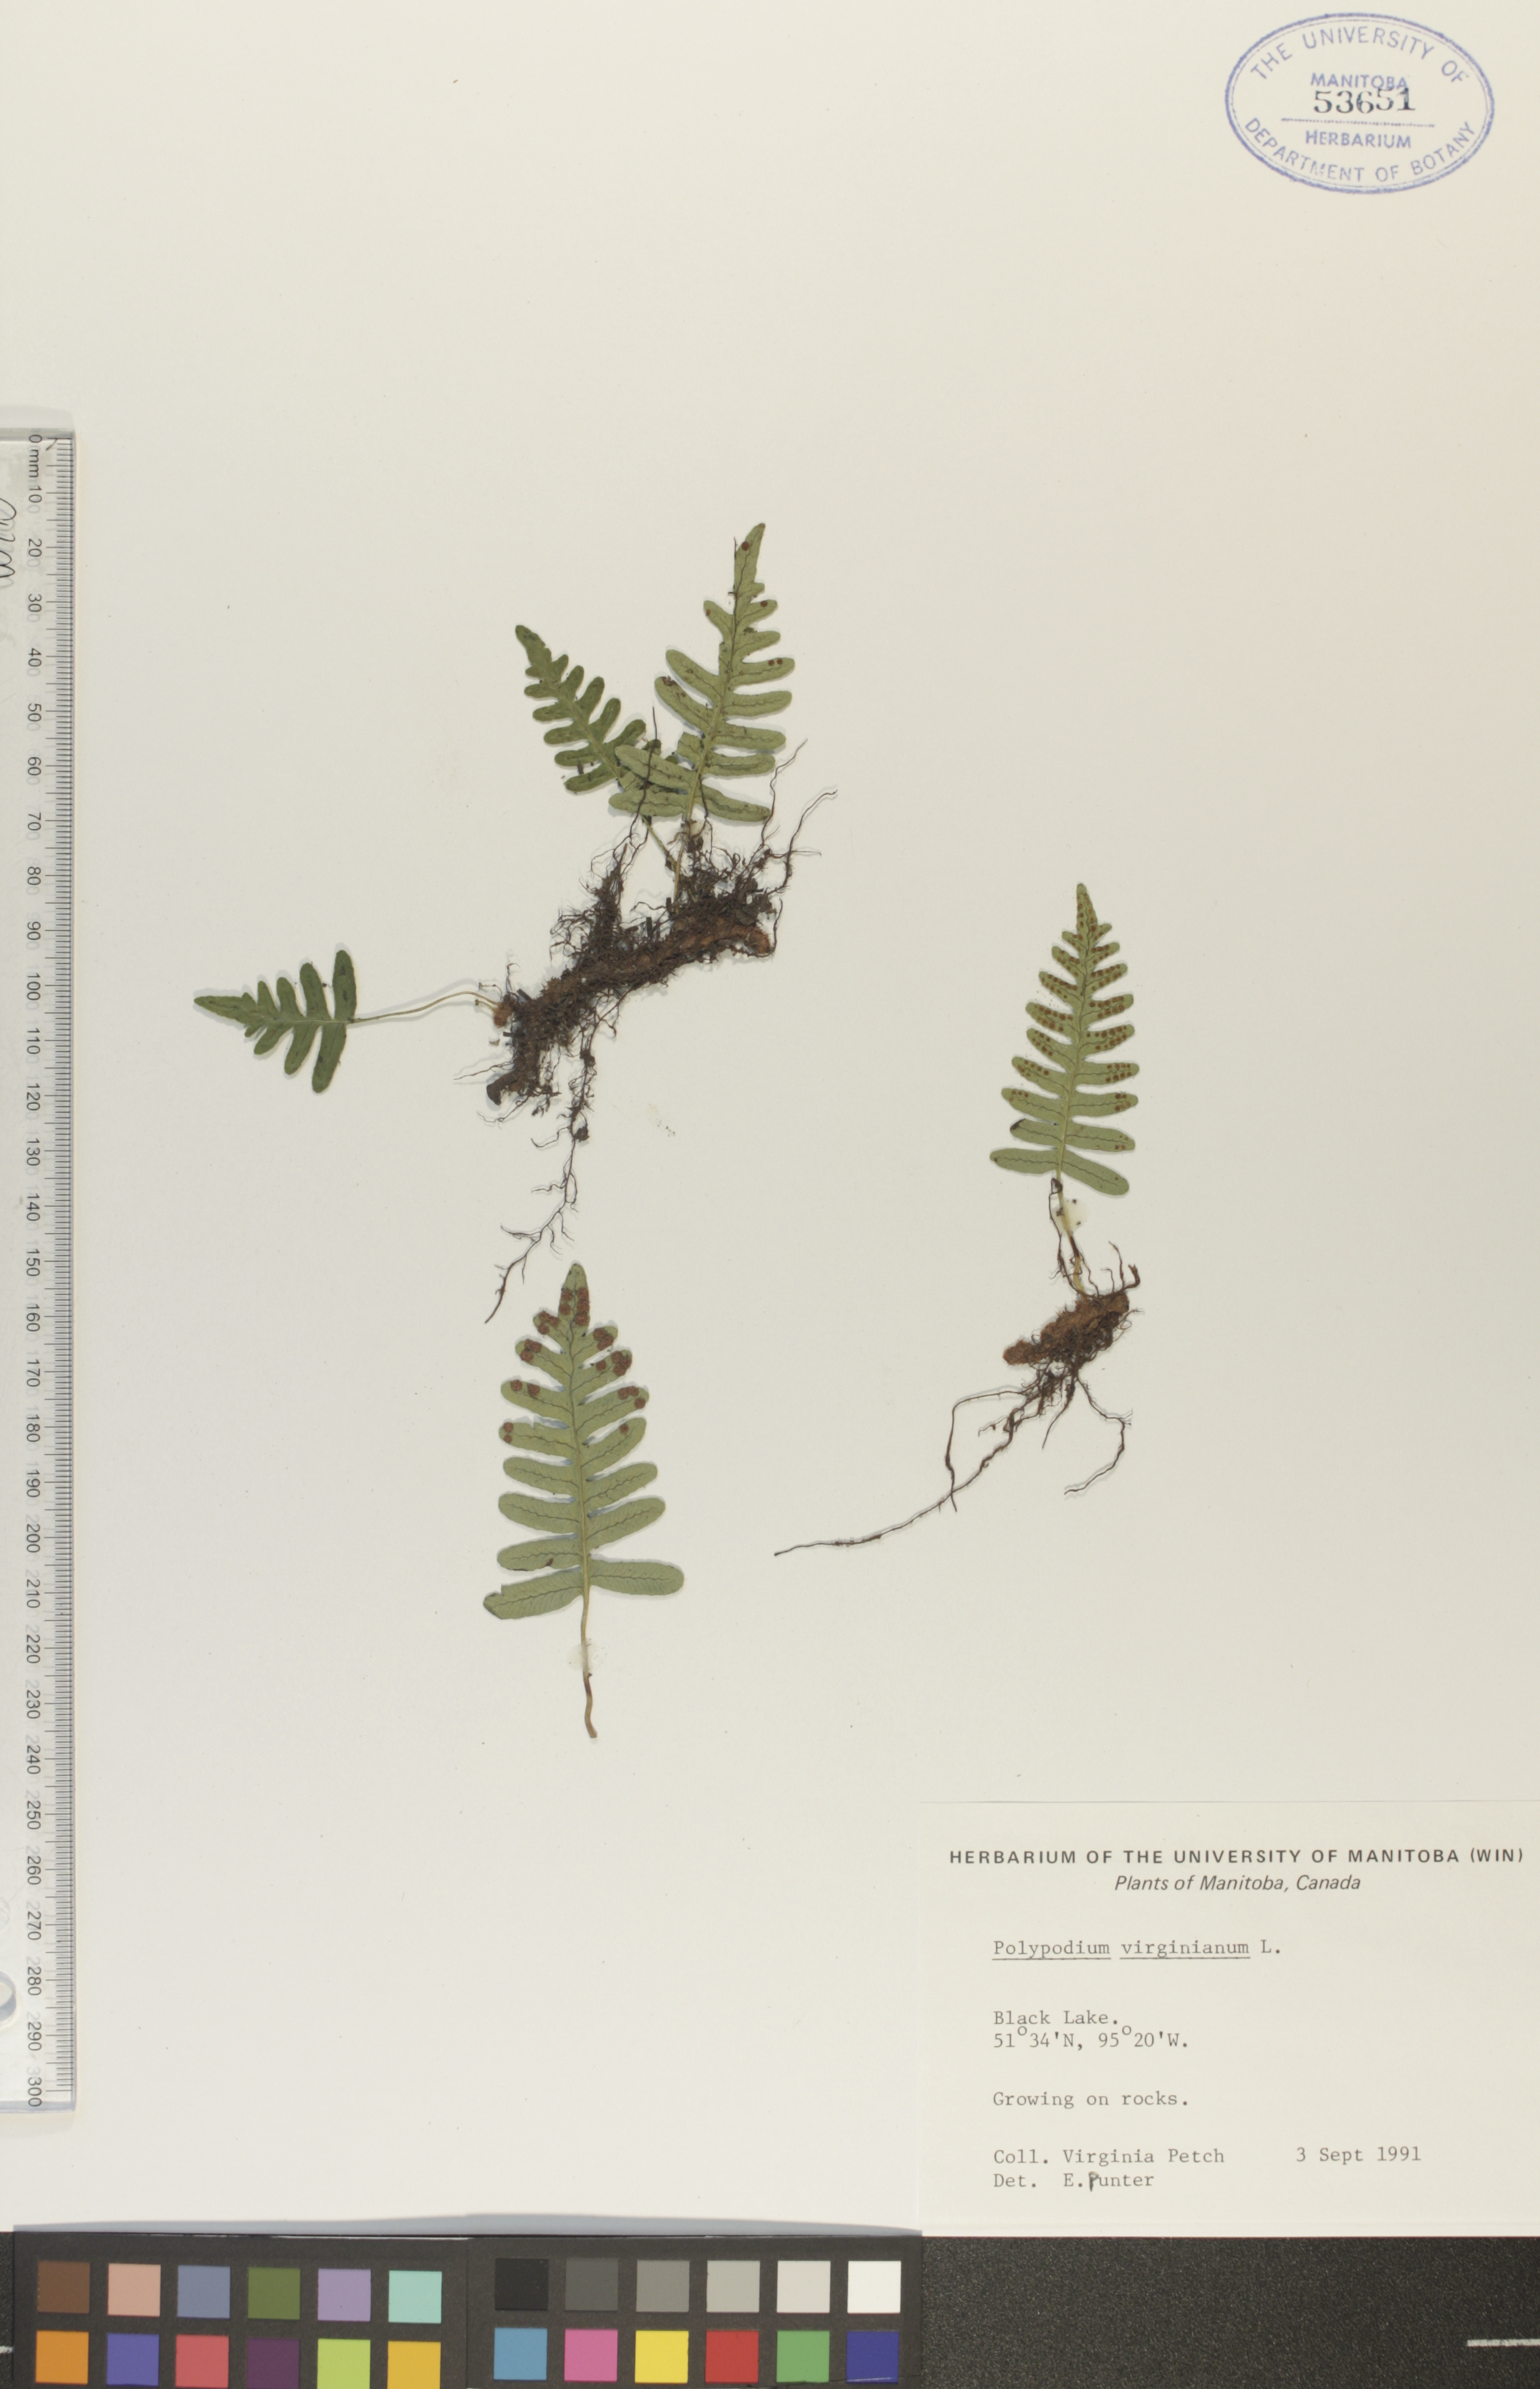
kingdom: Plantae
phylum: Tracheophyta
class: Polypodiopsida
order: Polypodiales
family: Polypodiaceae
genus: Polypodium
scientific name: Polypodium virginianum
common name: American wall fern
